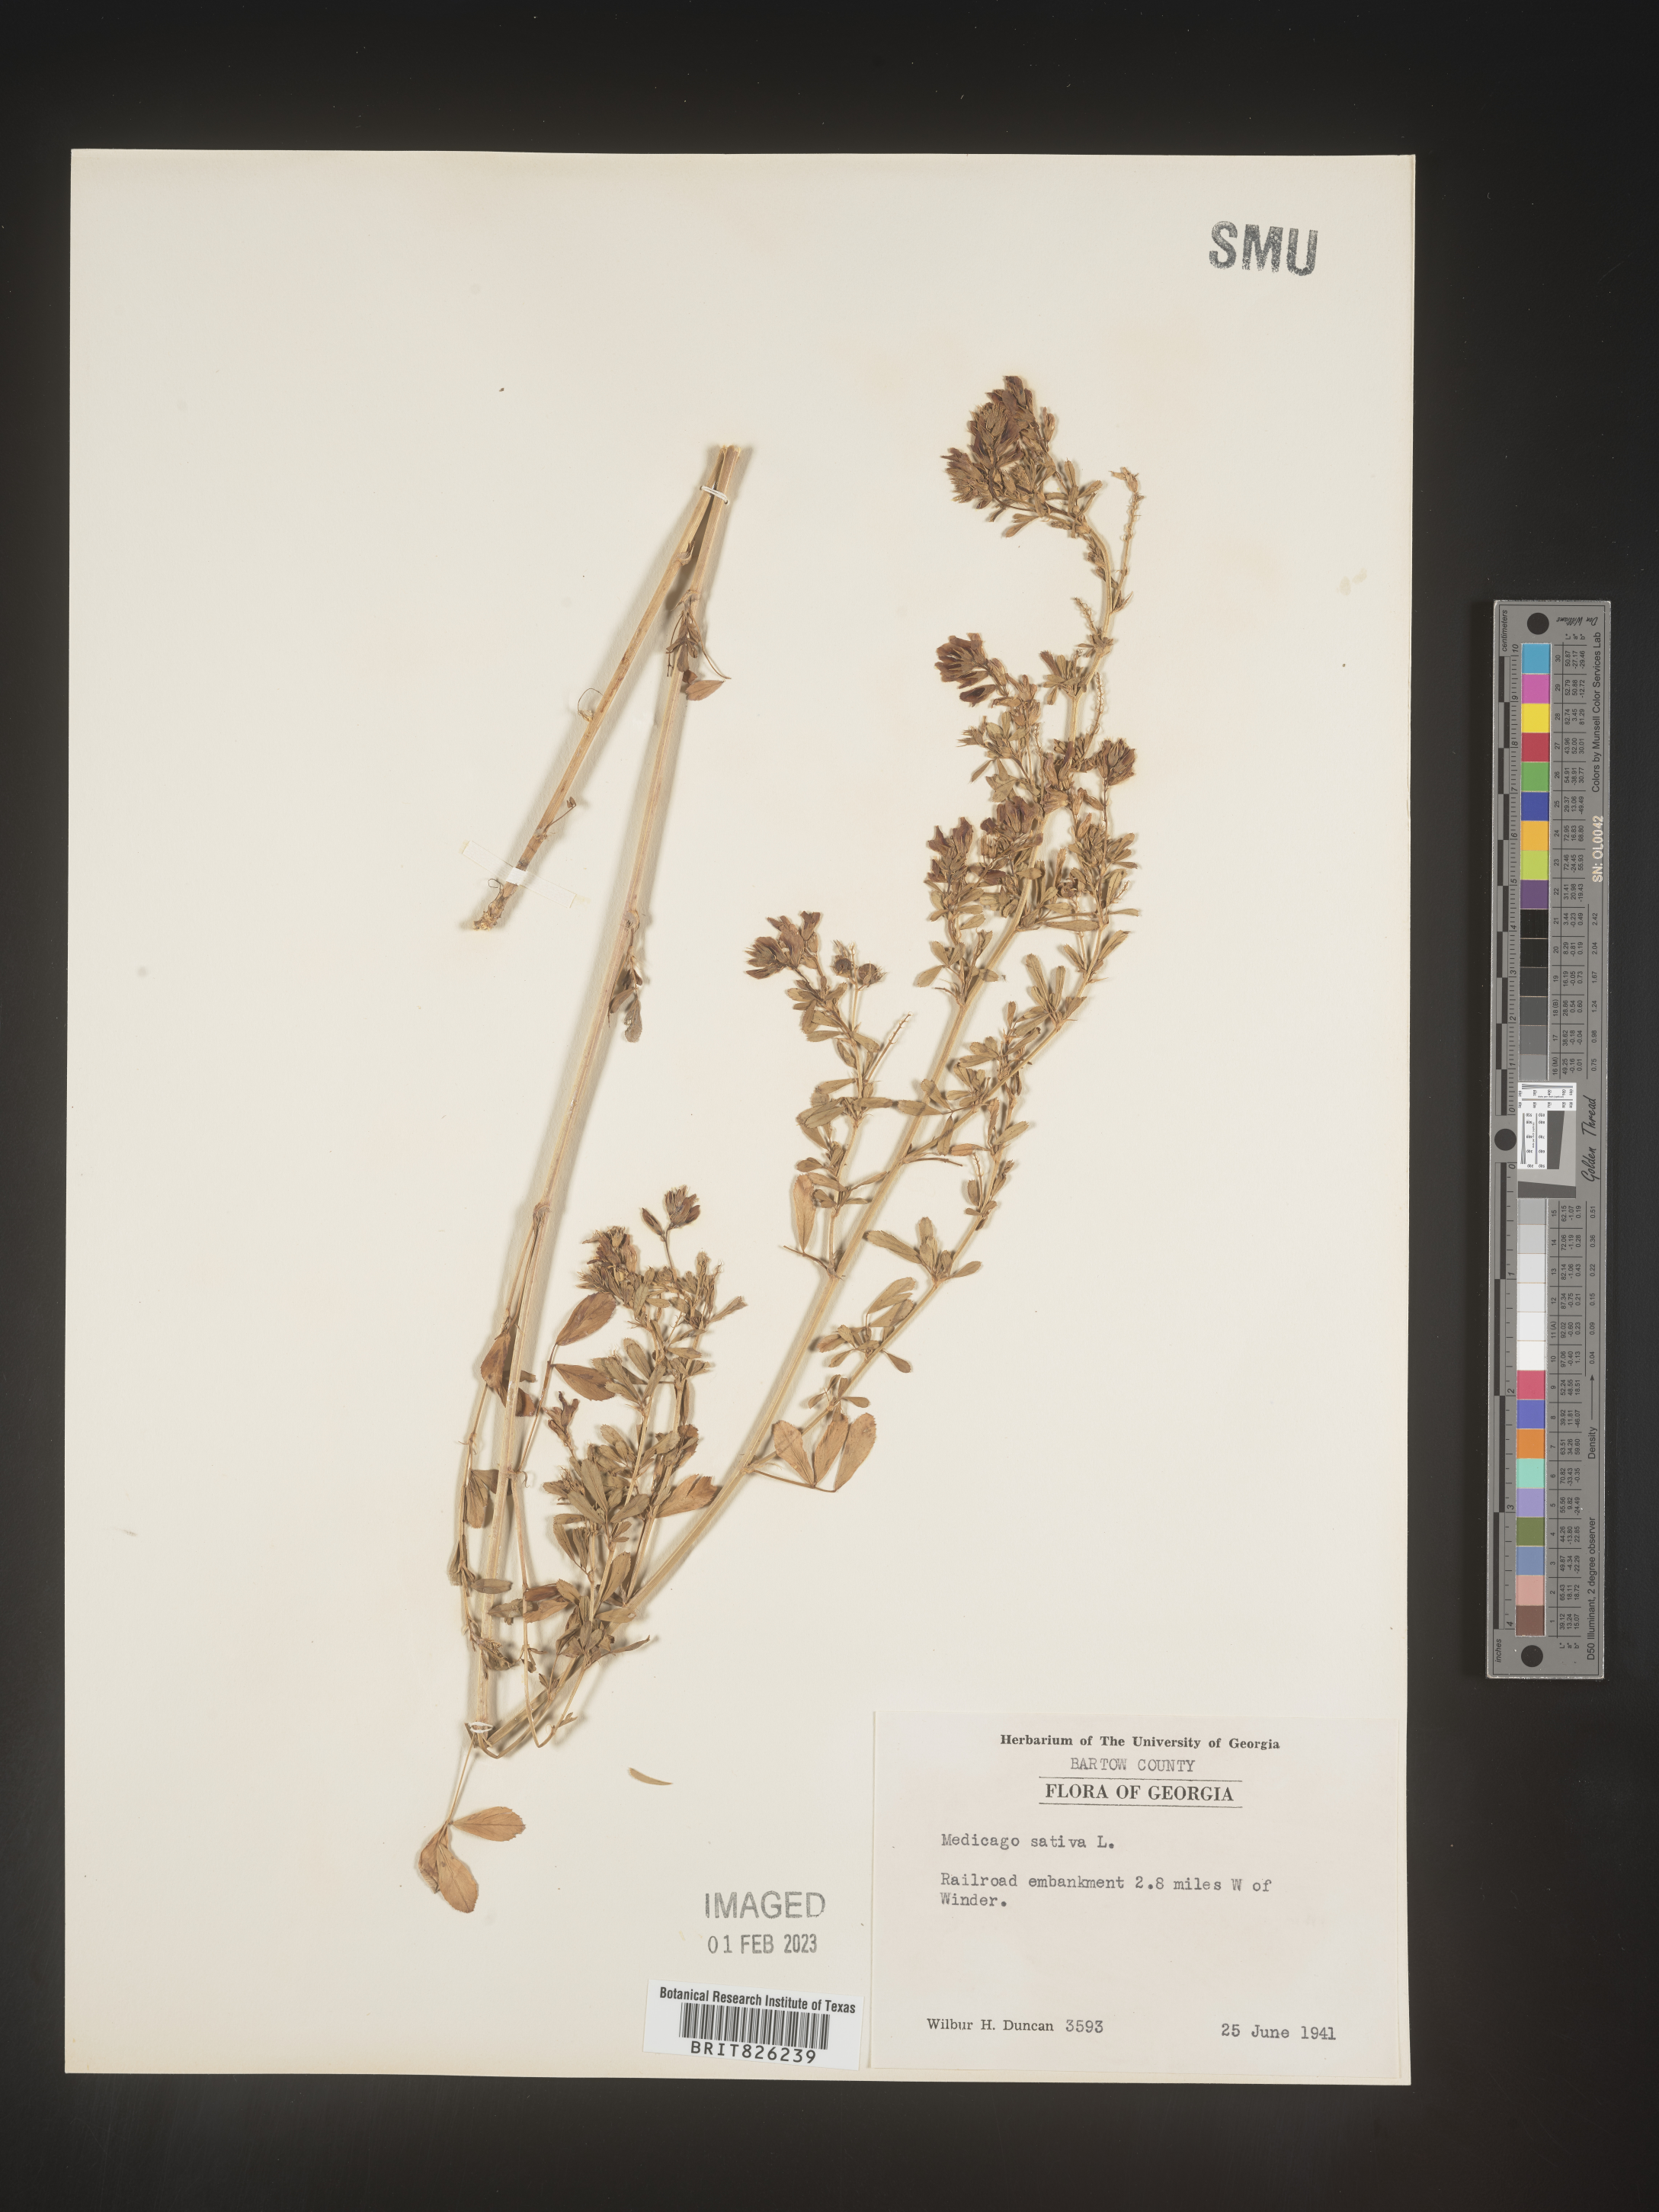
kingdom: Plantae
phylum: Tracheophyta
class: Magnoliopsida
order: Fabales
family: Fabaceae
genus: Medicago
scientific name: Medicago sativa
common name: Alfalfa
